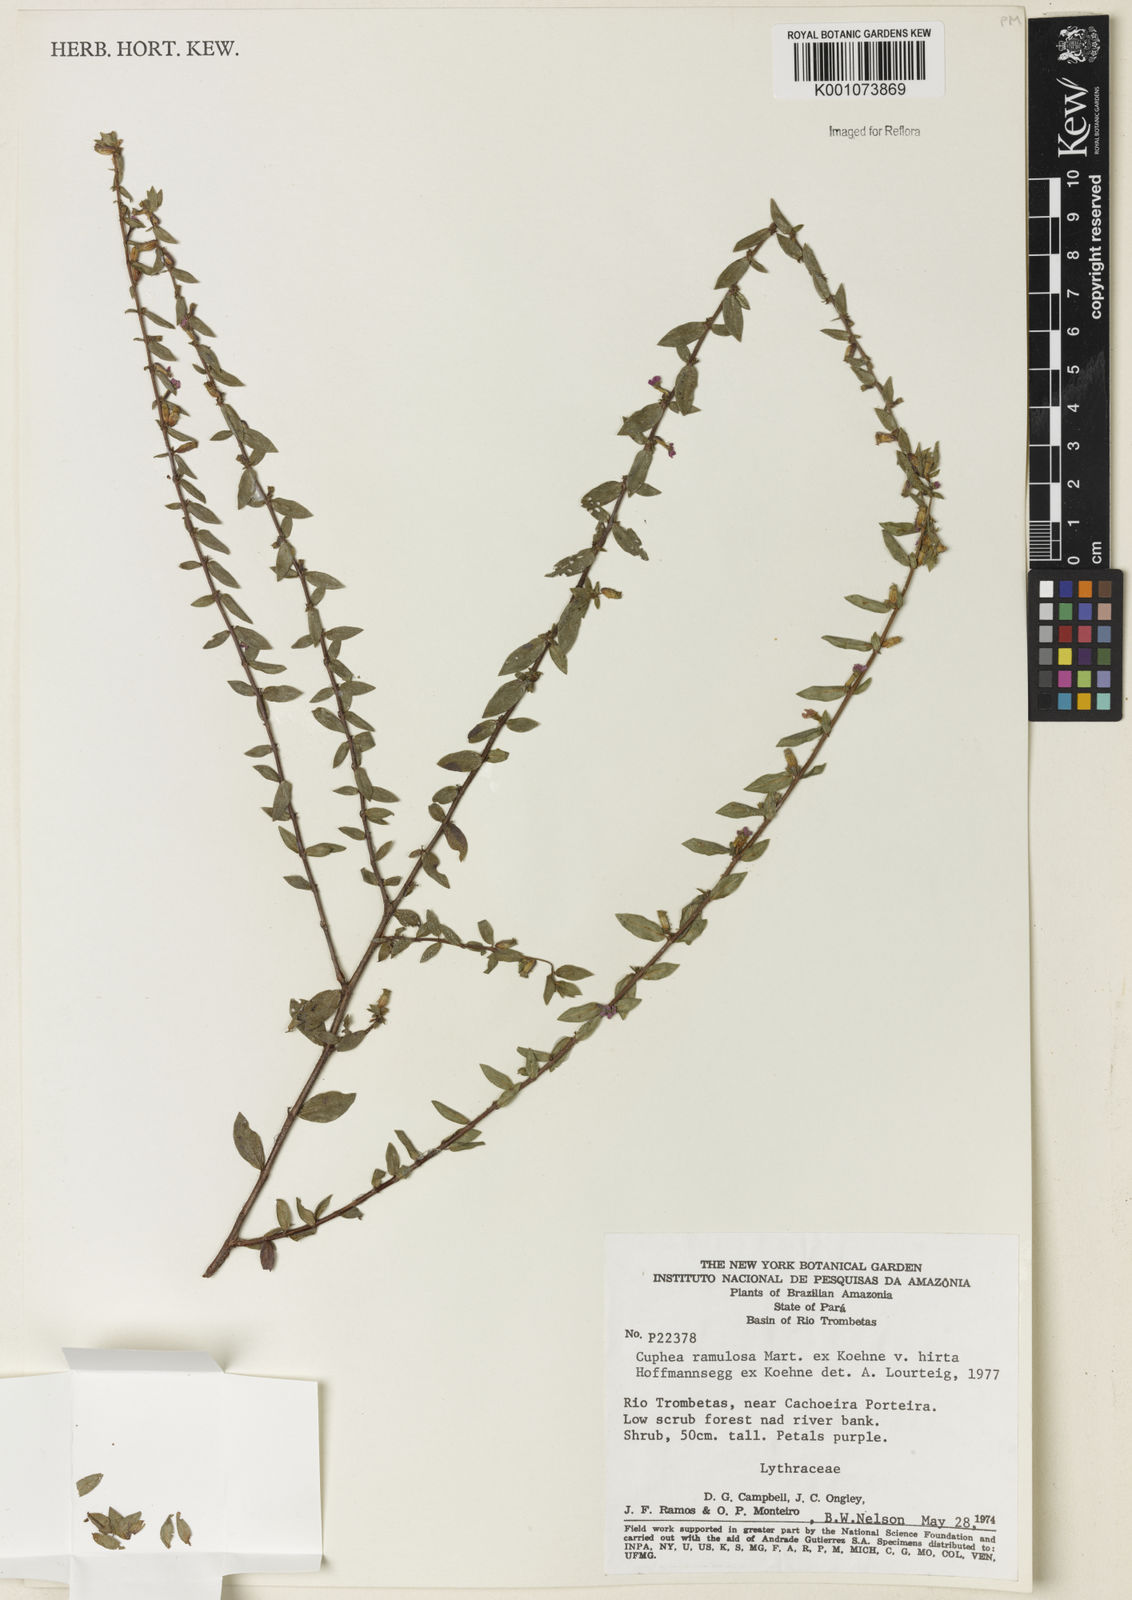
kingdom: Plantae
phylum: Tracheophyta
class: Magnoliopsida
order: Myrtales
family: Lythraceae
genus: Cuphea
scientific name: Cuphea antisyphilitica
